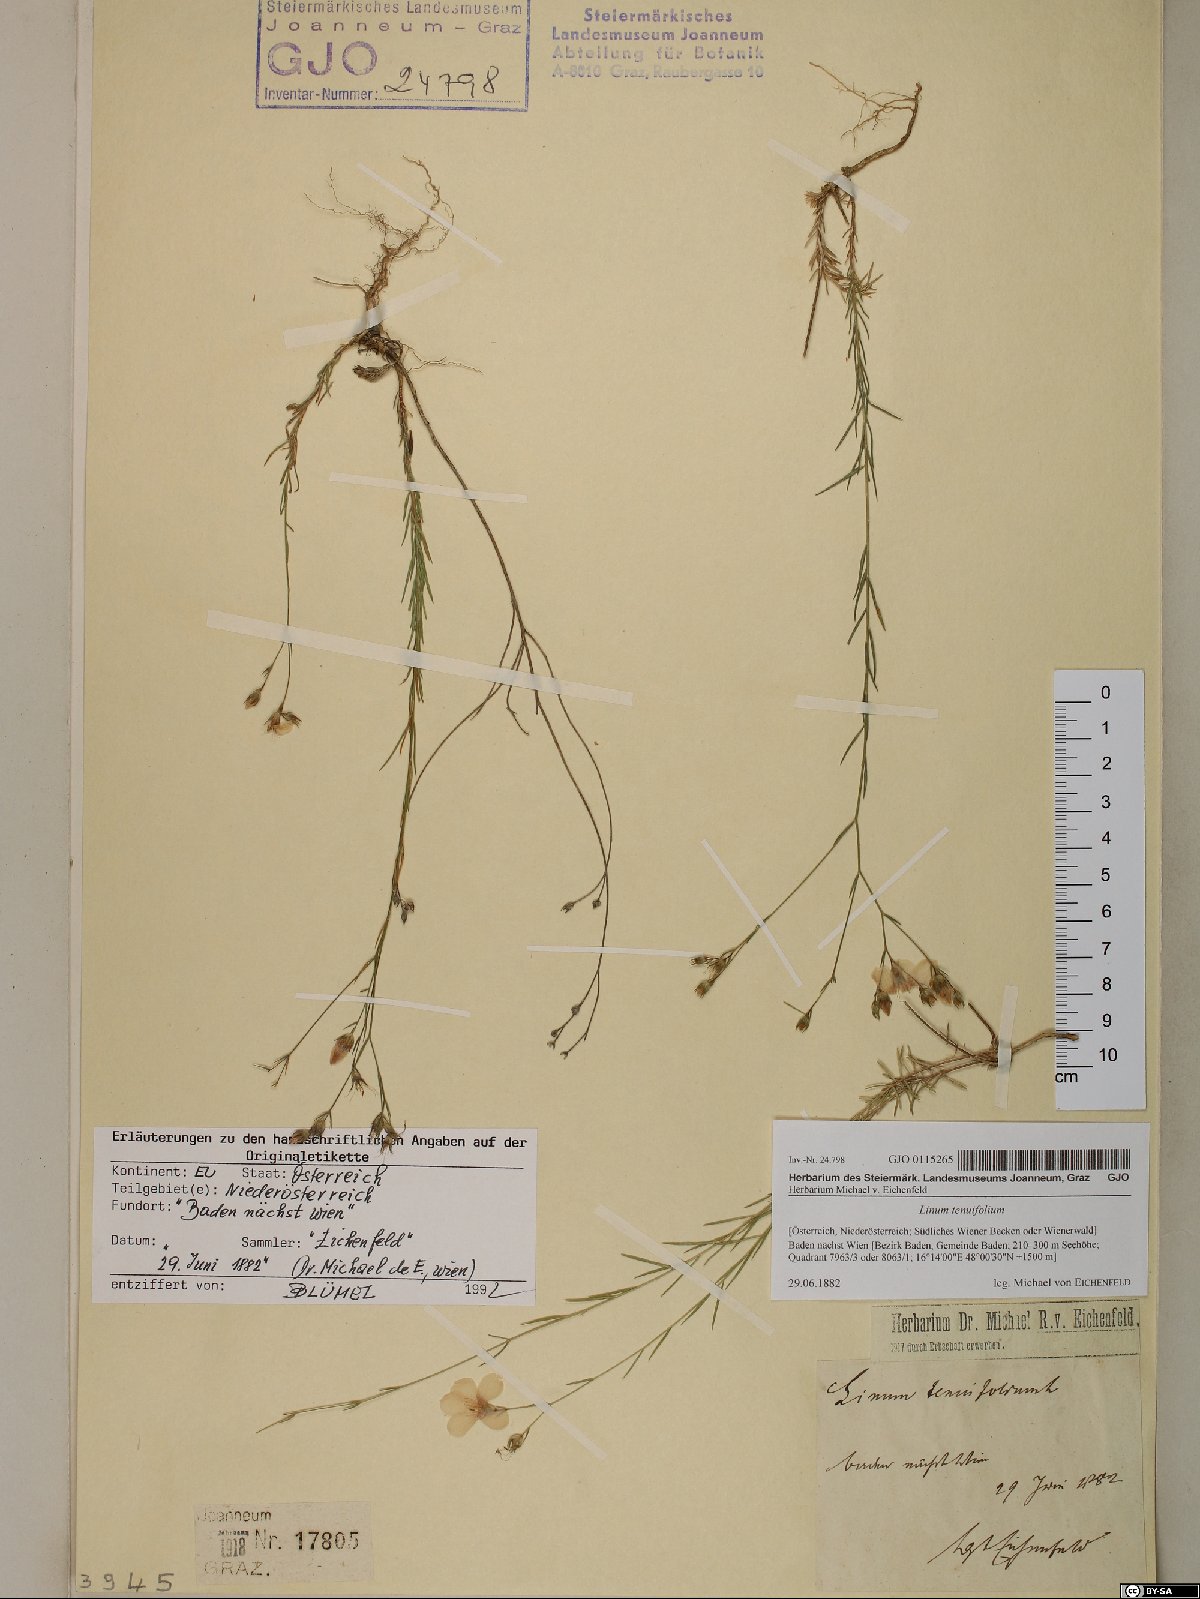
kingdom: Plantae
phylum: Tracheophyta
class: Magnoliopsida
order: Malpighiales
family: Linaceae
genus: Linum
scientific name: Linum tenuifolium
